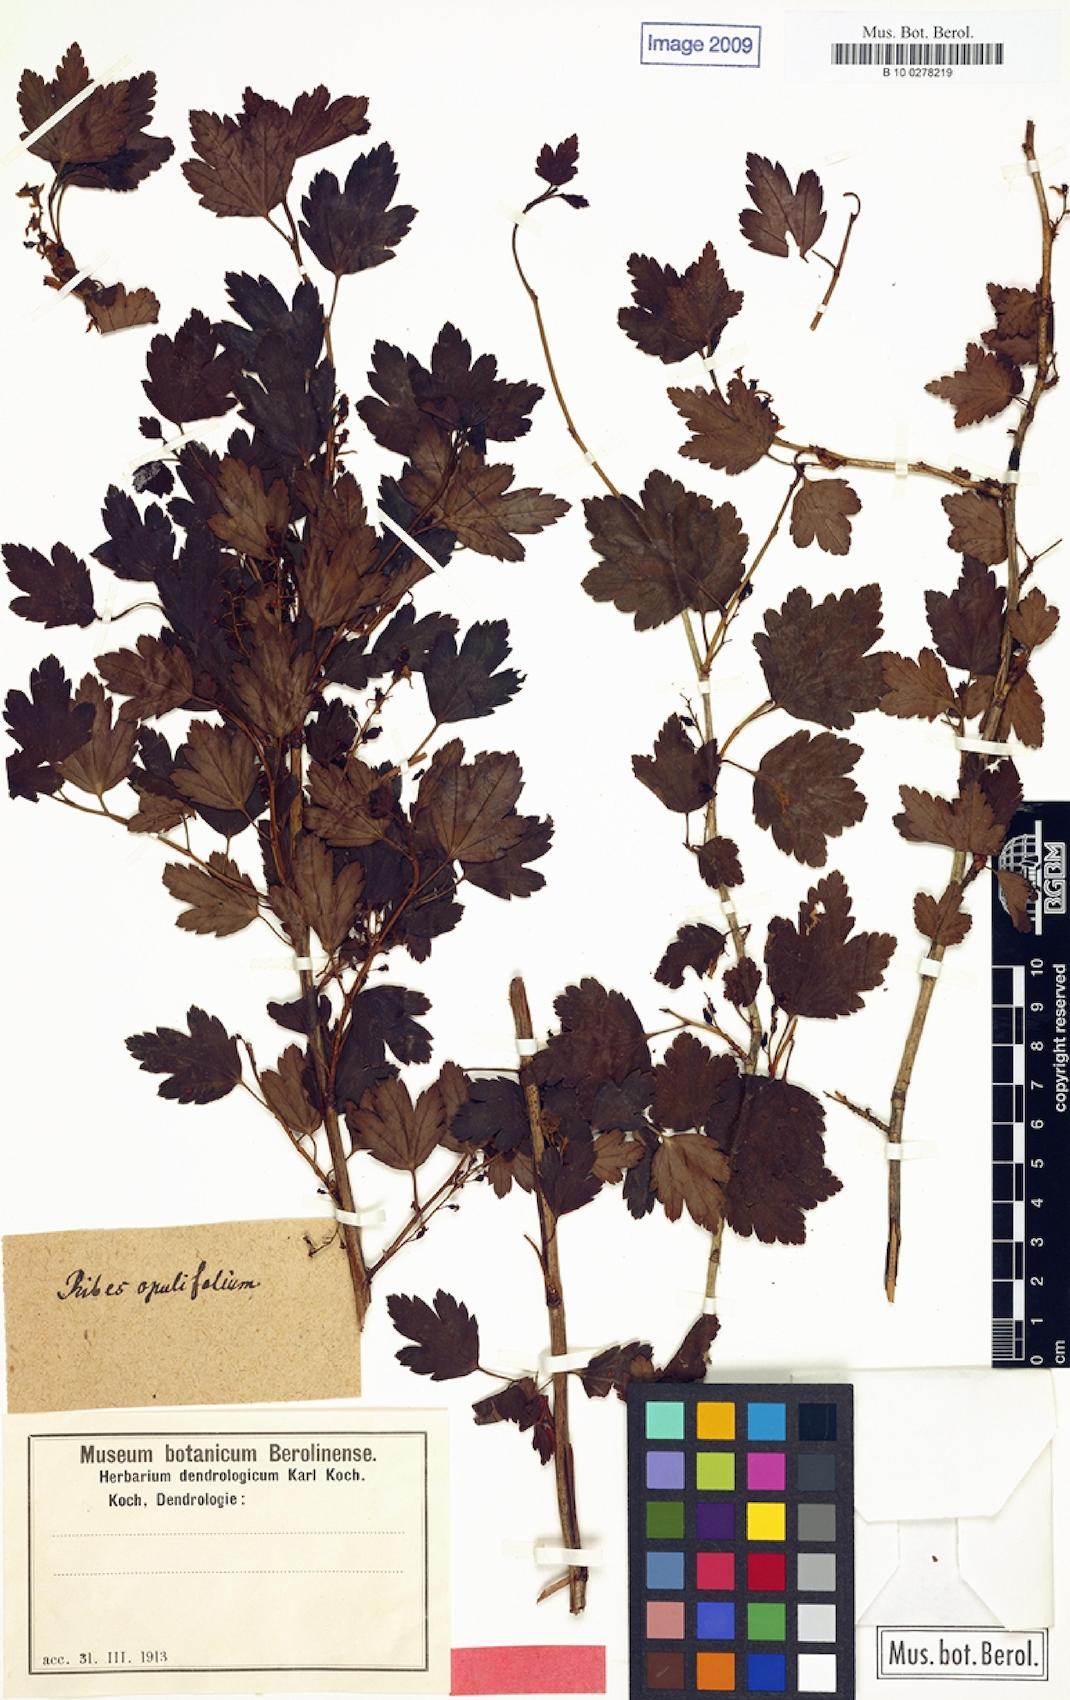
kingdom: Plantae
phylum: Tracheophyta
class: Magnoliopsida
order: Saxifragales
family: Grossulariaceae
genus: Ribes
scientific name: Ribes alpinum
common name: Alpine currant
